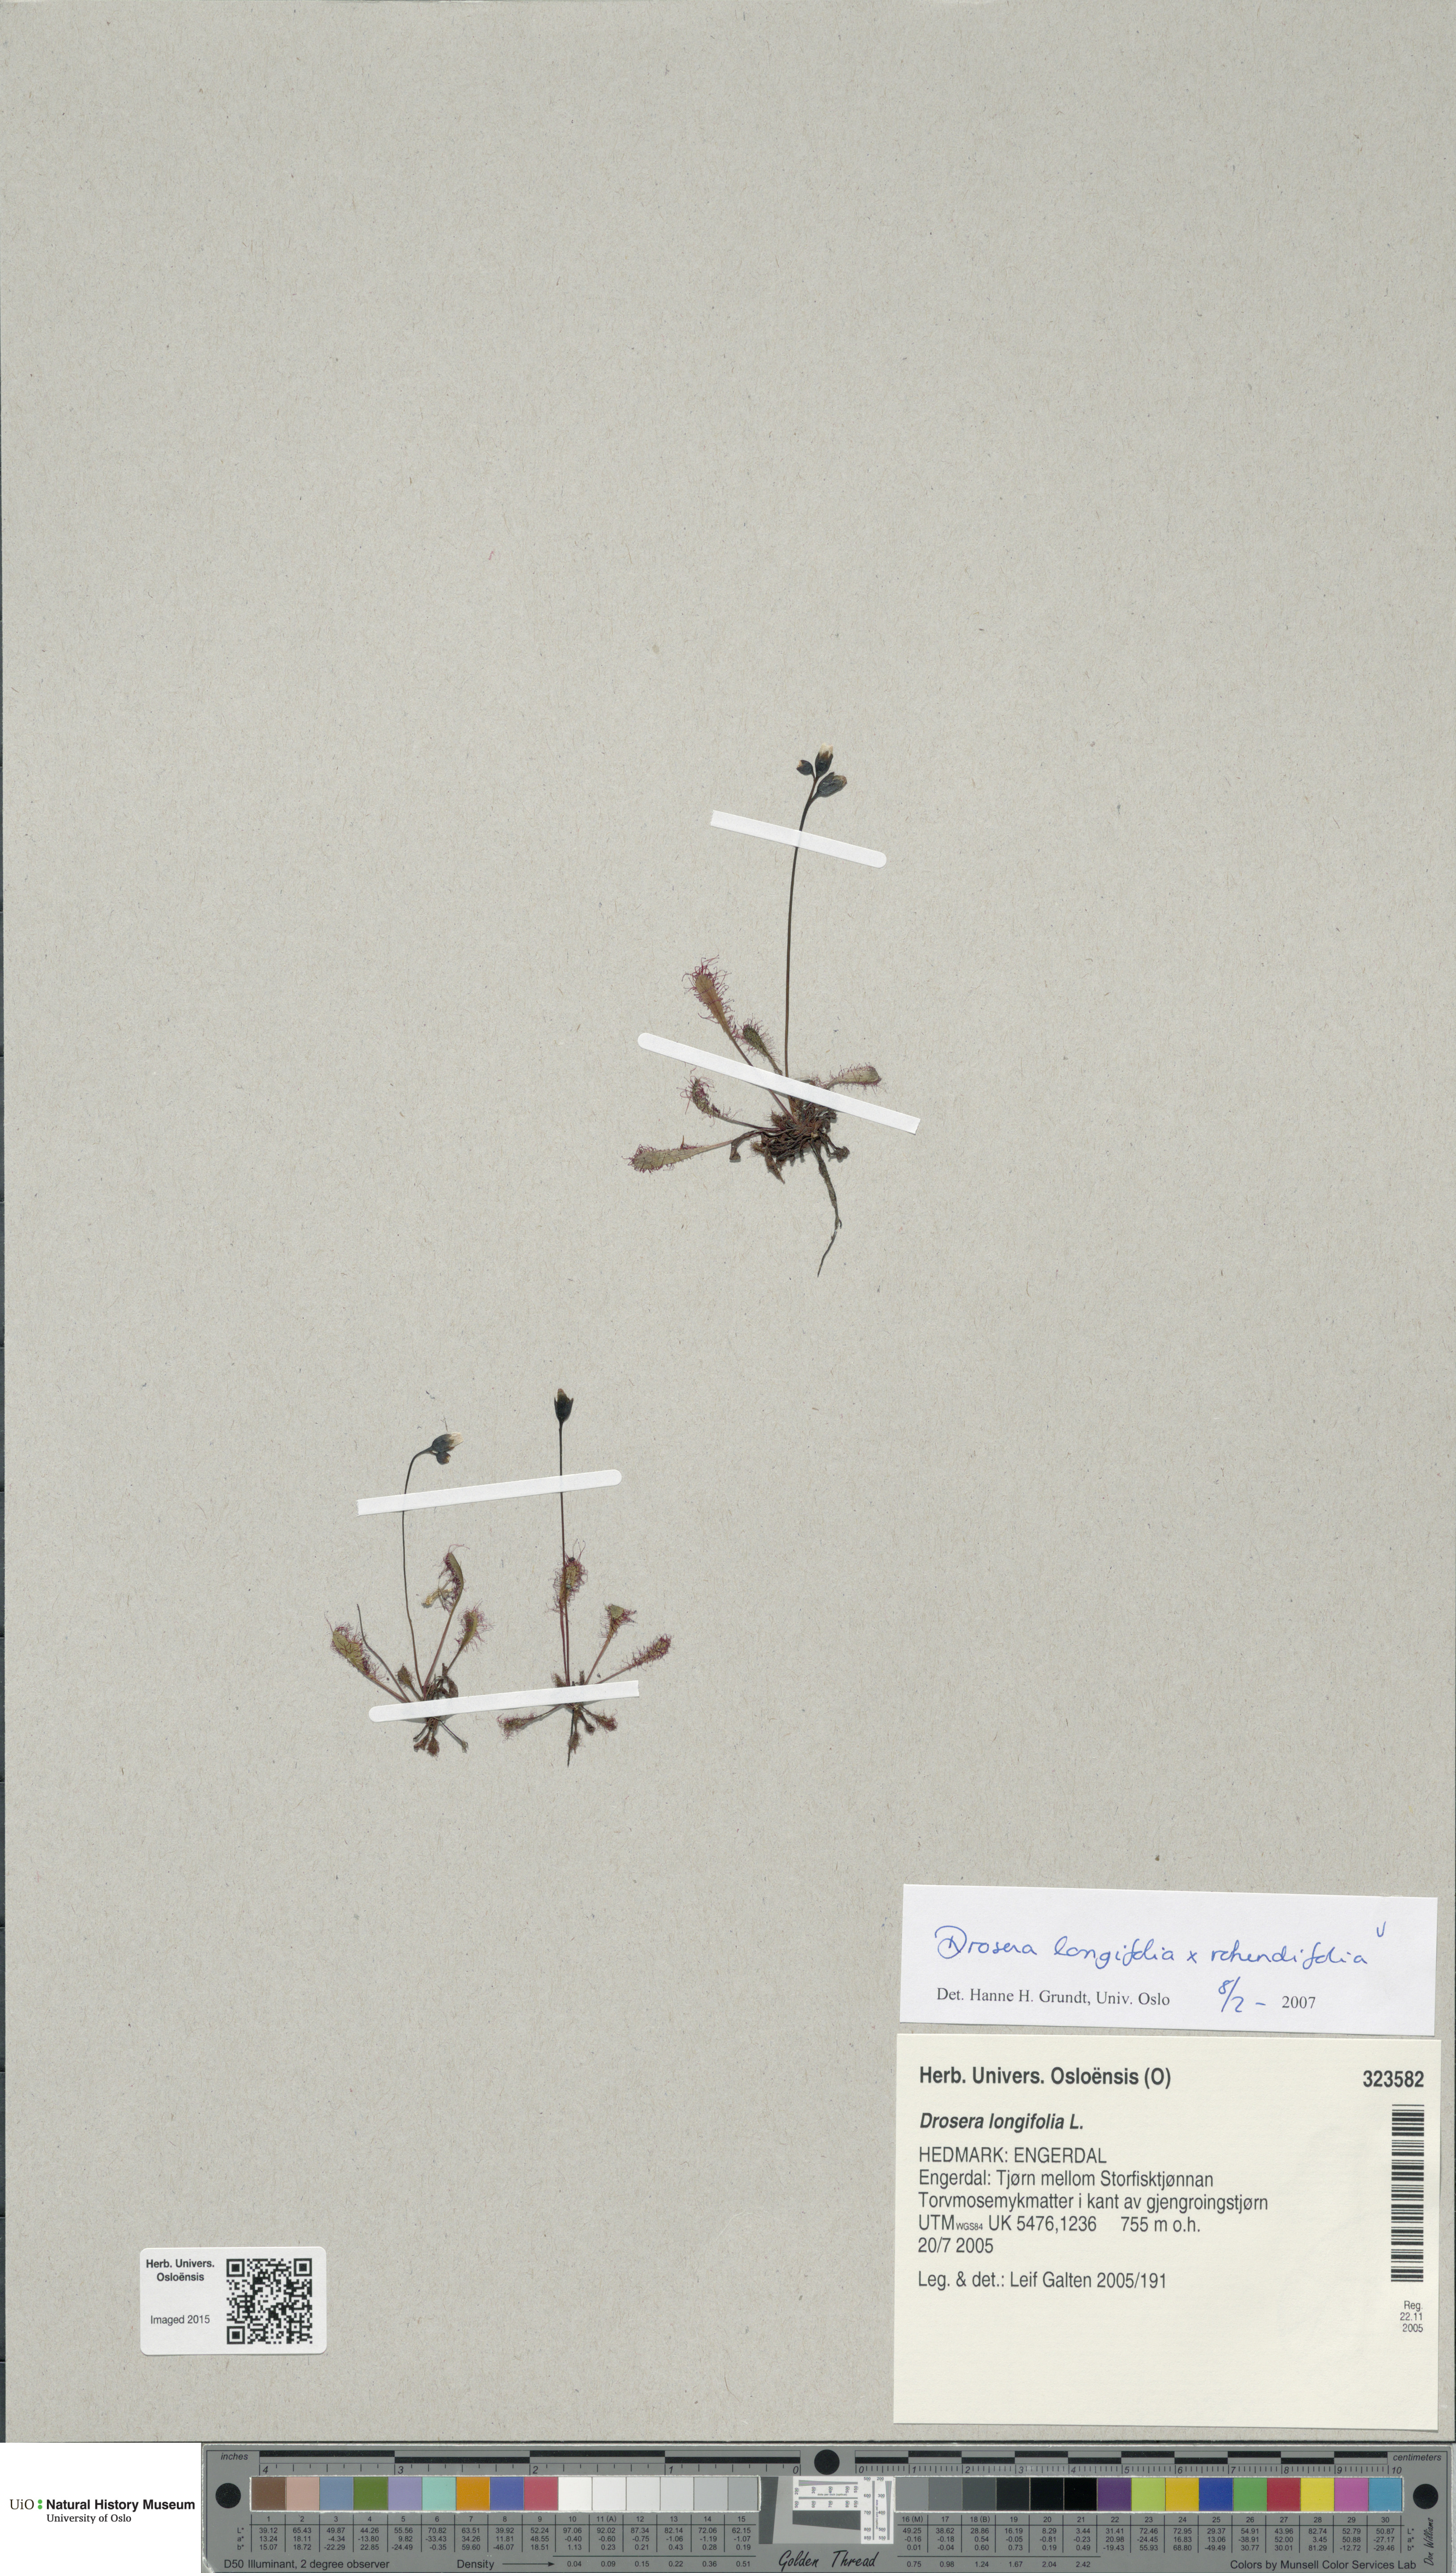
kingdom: Plantae
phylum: Tracheophyta
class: Magnoliopsida
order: Caryophyllales
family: Droseraceae
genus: Drosera
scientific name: Drosera
